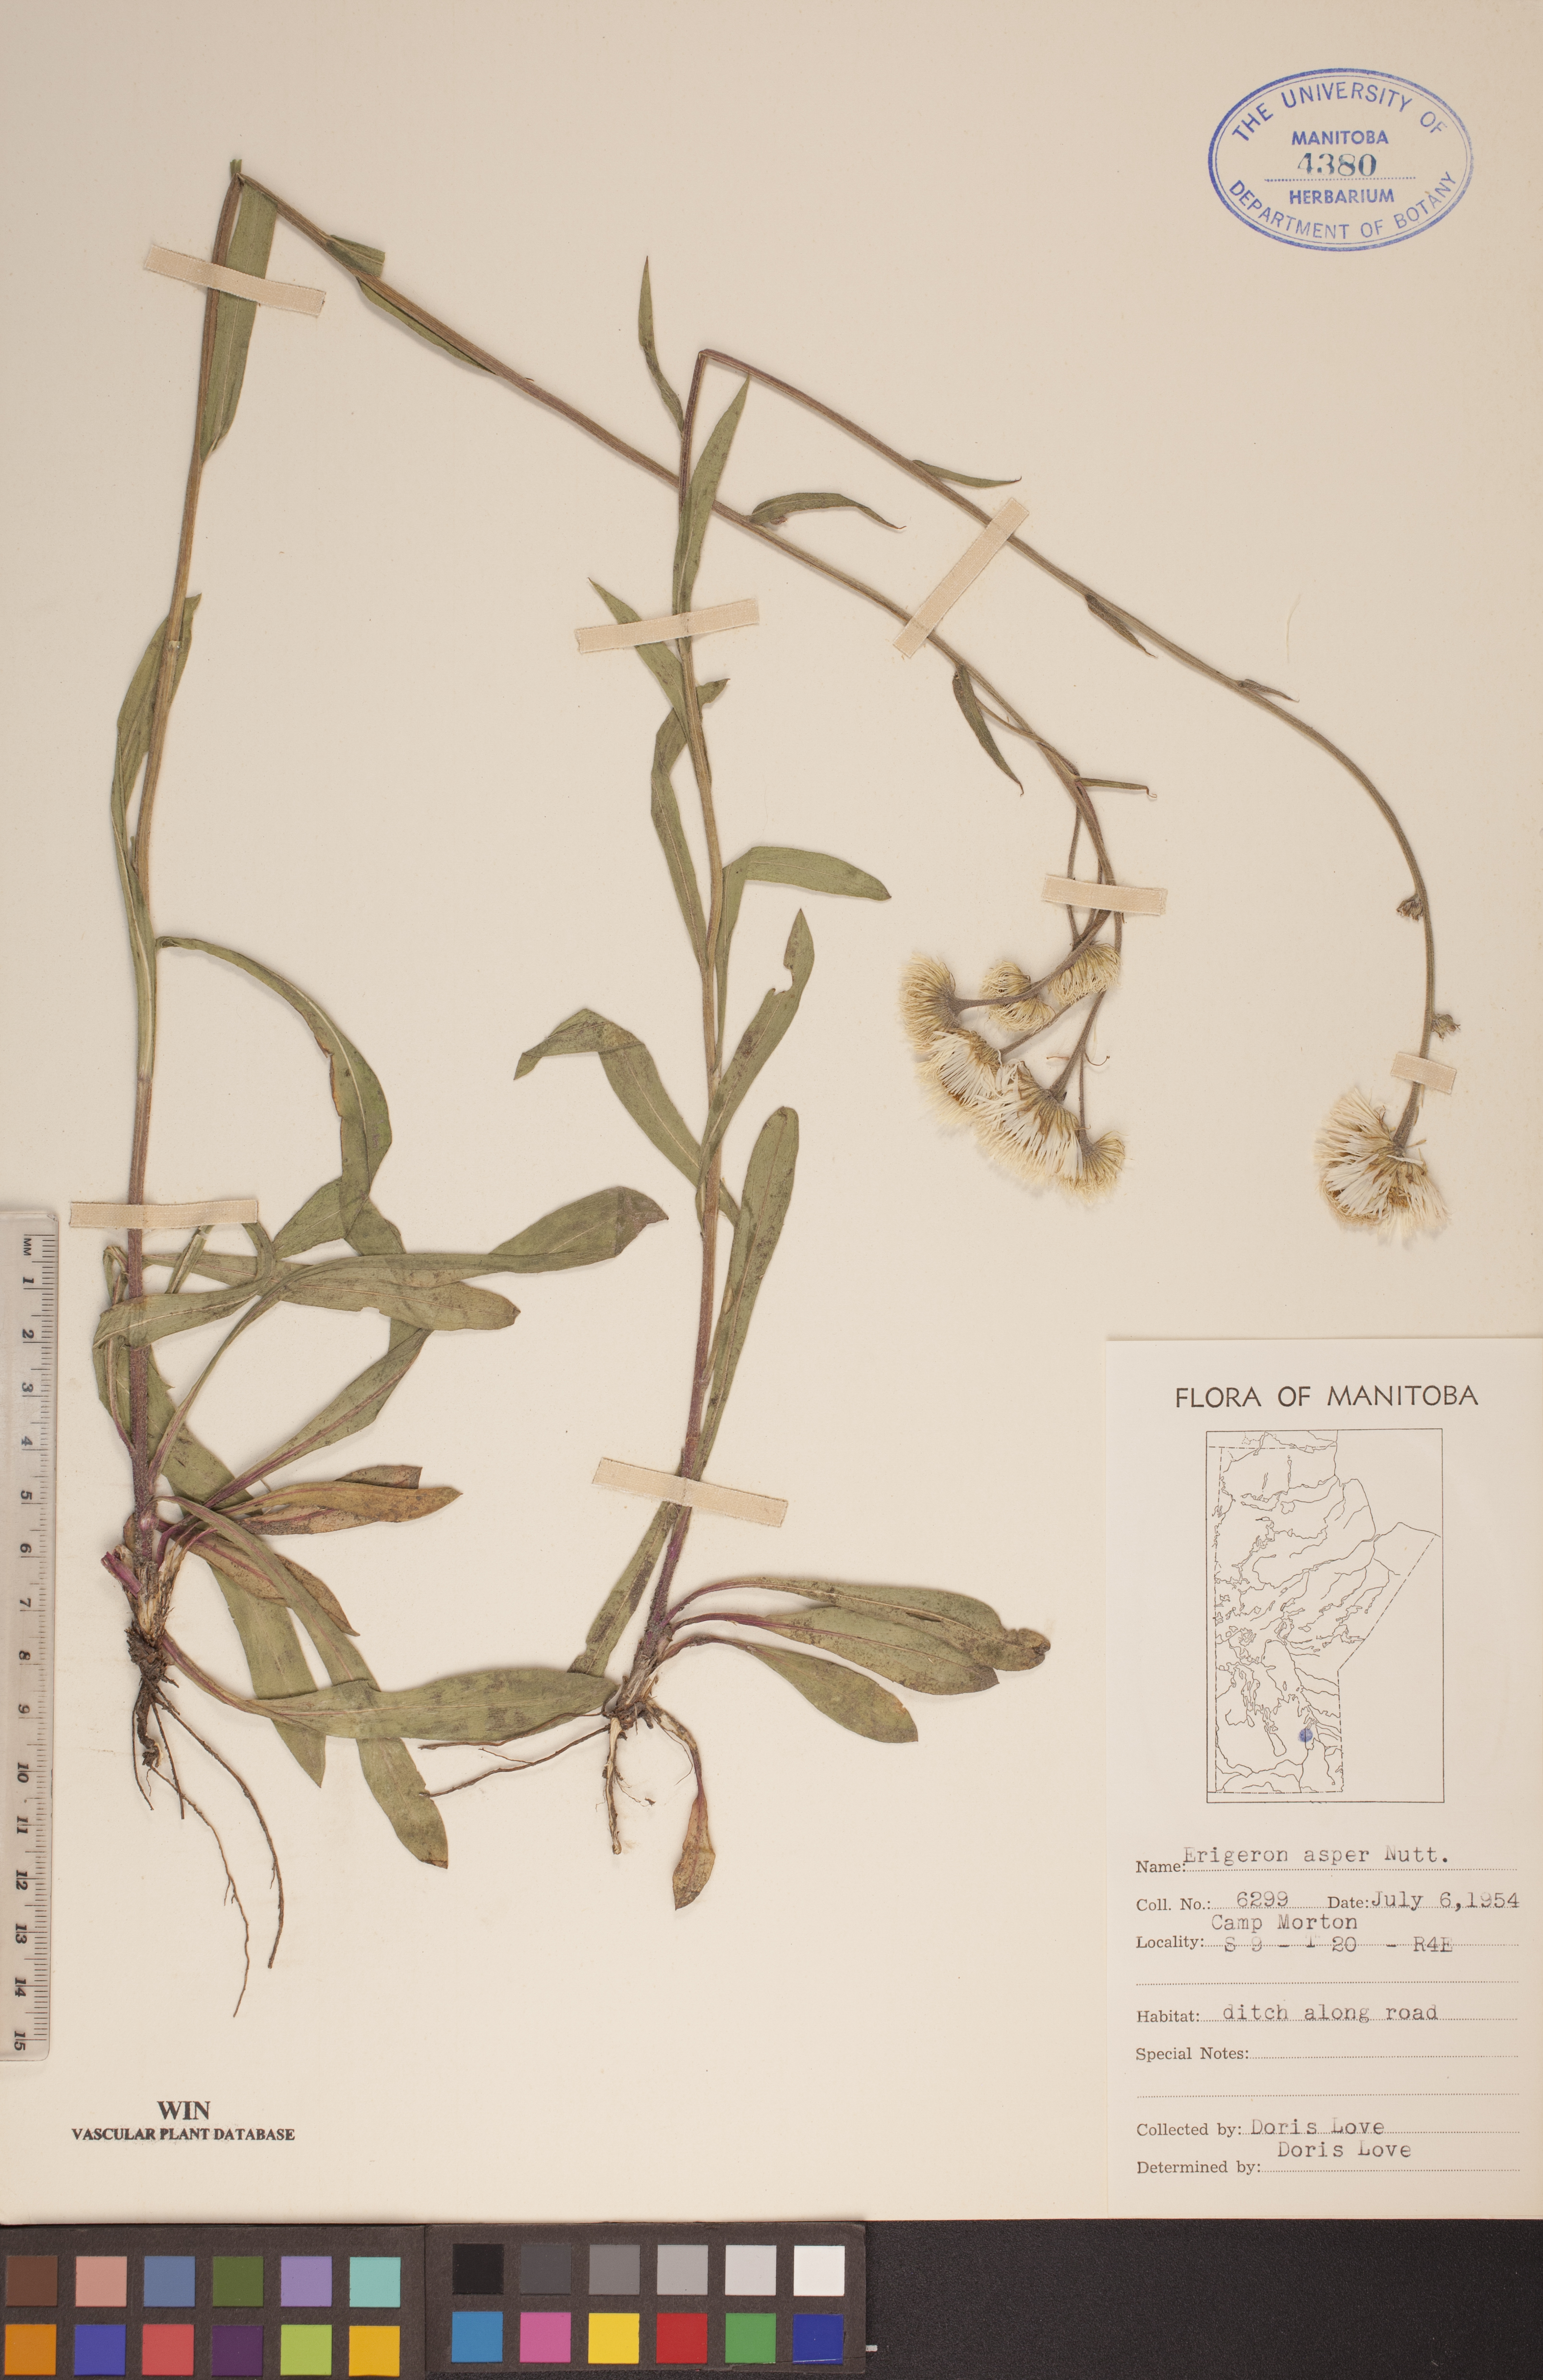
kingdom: Plantae
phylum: Tracheophyta
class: Magnoliopsida
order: Asterales
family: Asteraceae
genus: Erigeron
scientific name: Erigeron glabellus
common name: Smooth fleabane
